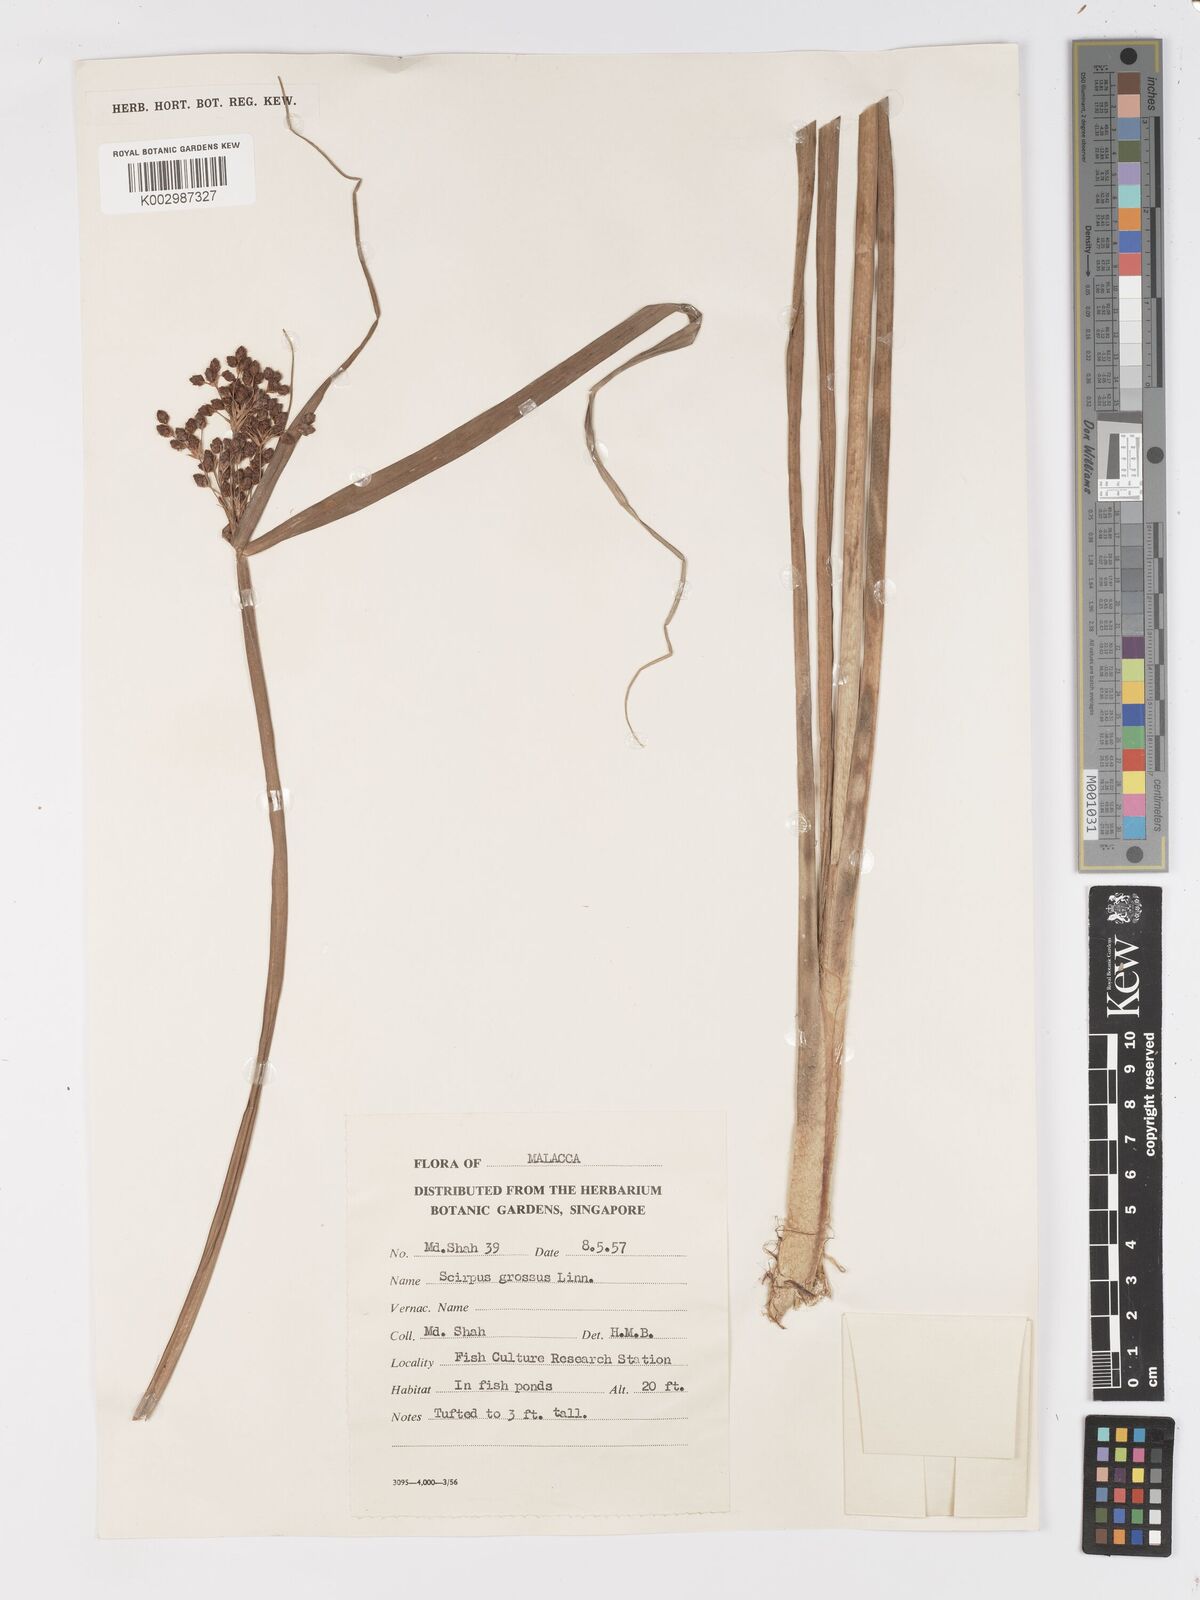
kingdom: Plantae
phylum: Tracheophyta
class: Liliopsida
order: Poales
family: Cyperaceae
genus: Actinoscirpus
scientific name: Actinoscirpus grossus
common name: Giant bur rush
